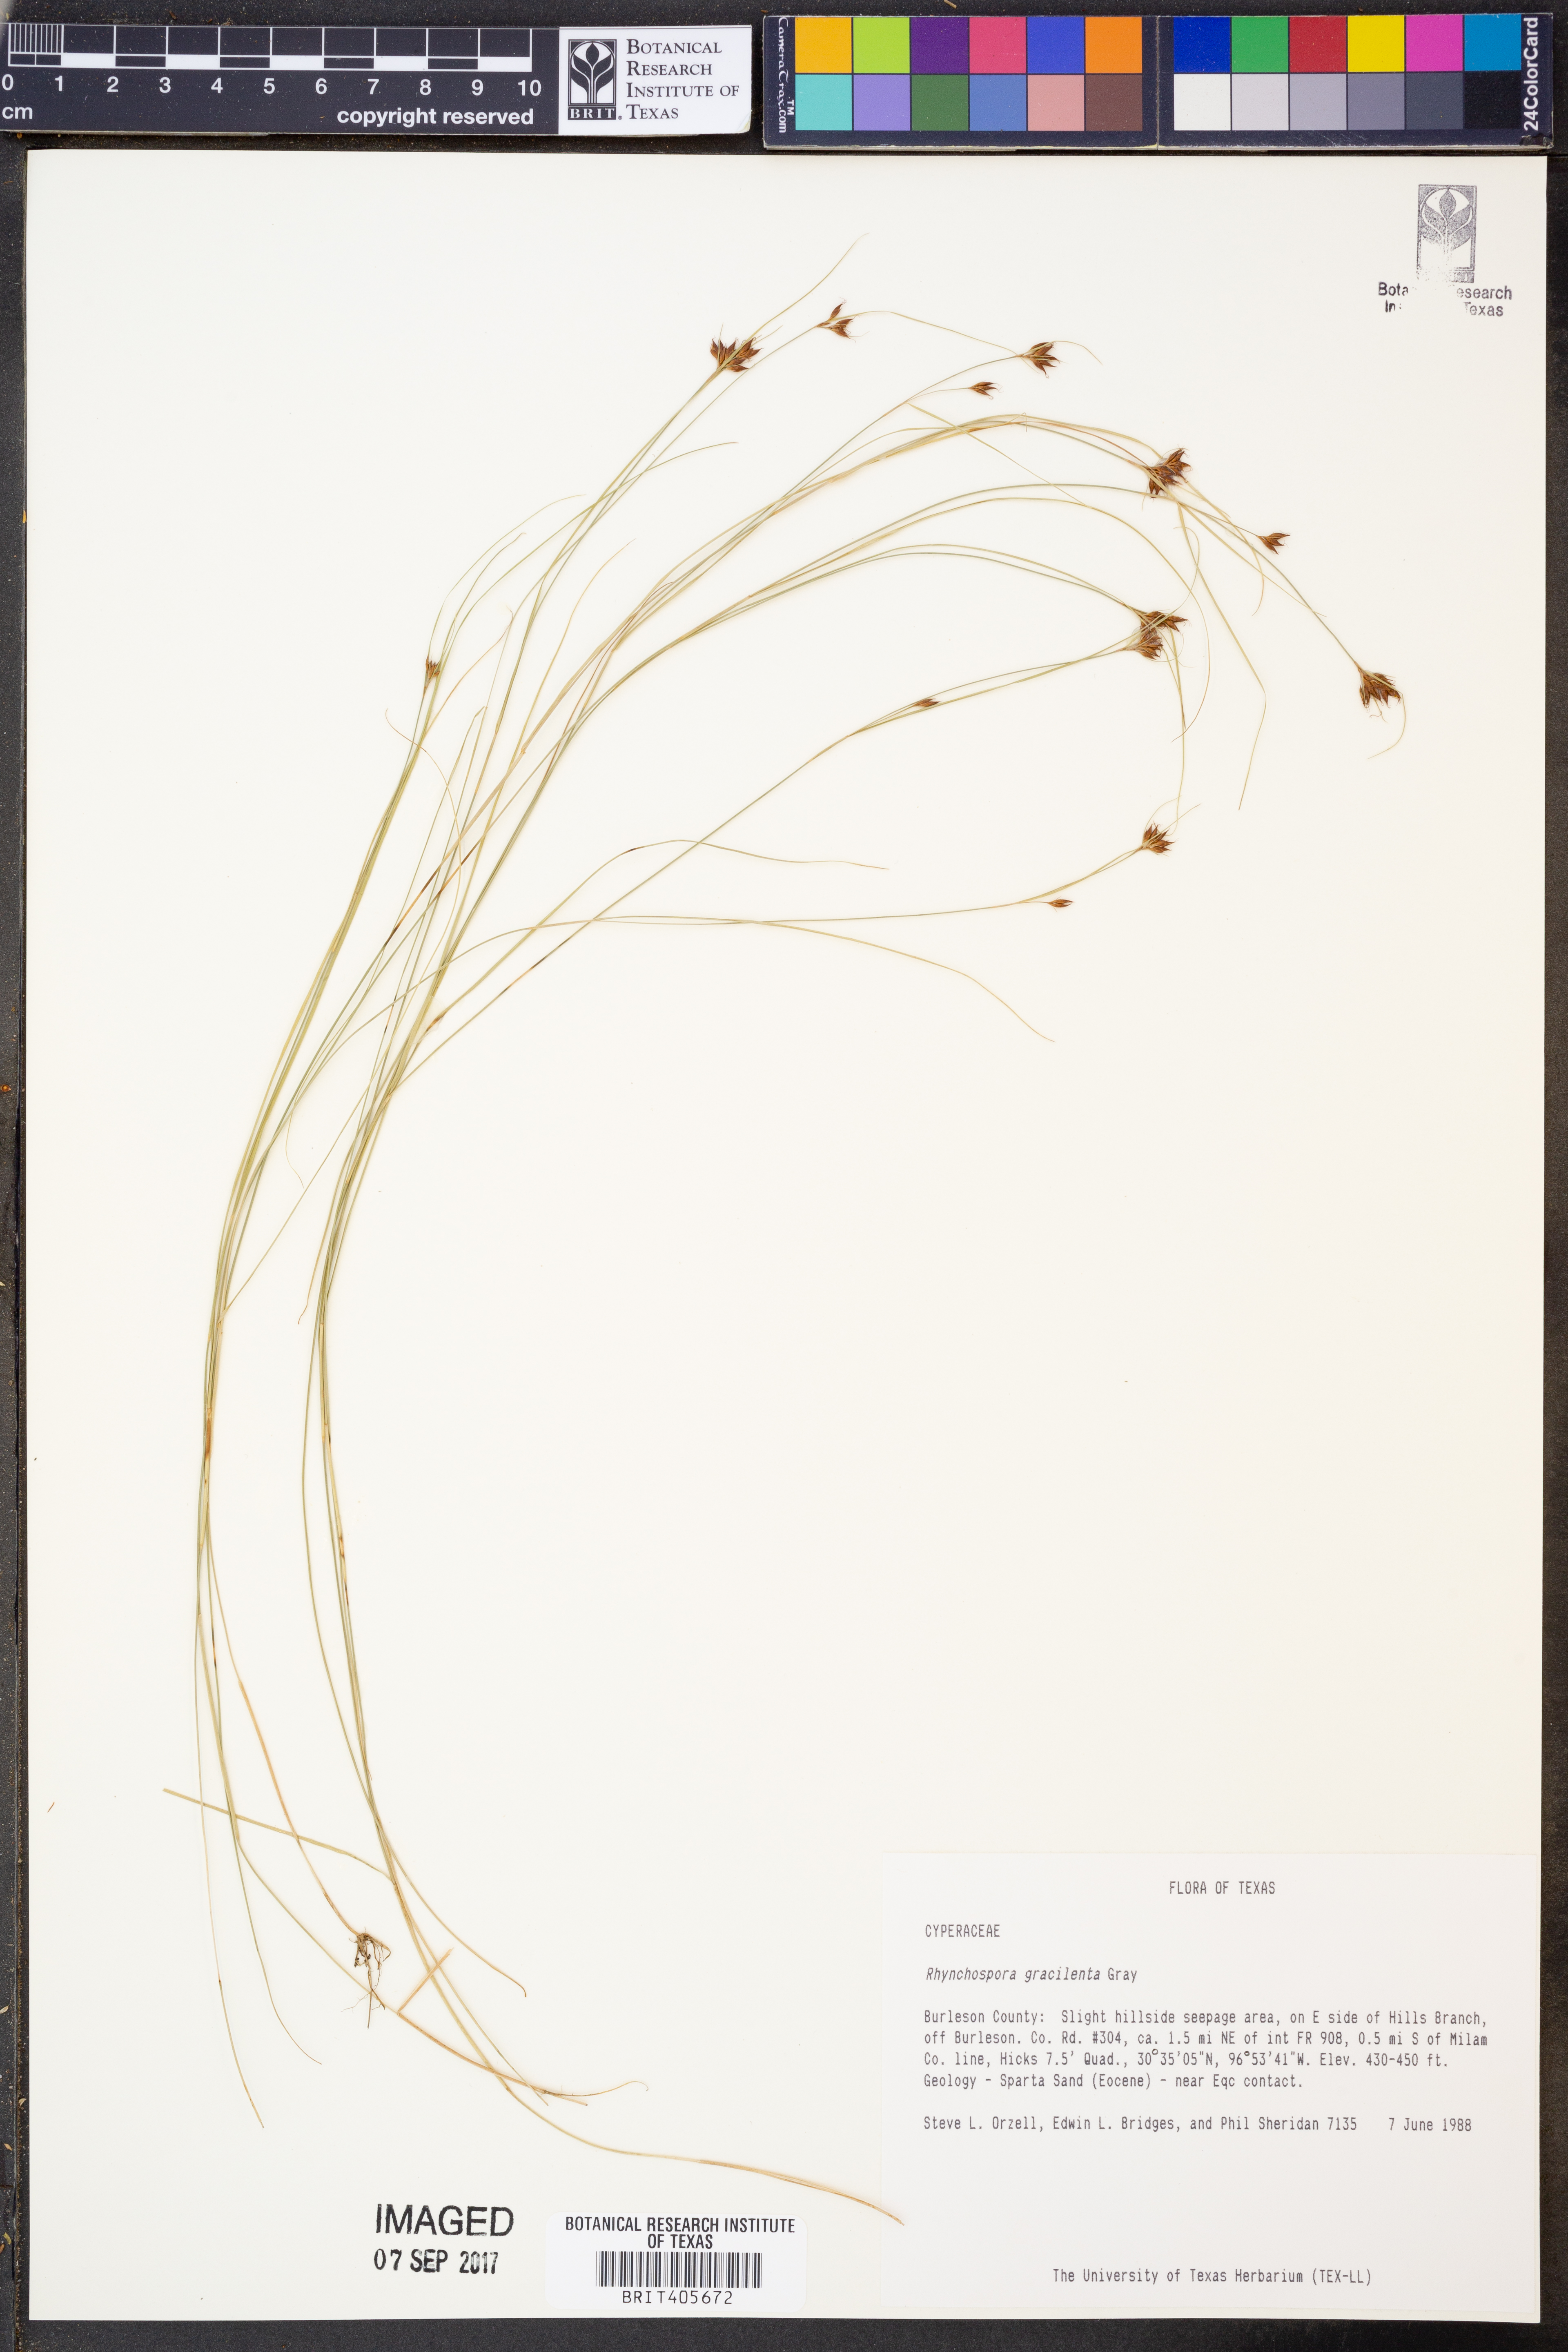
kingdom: Plantae
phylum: Tracheophyta
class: Liliopsida
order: Poales
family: Cyperaceae
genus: Rhynchospora
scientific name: Rhynchospora gracilenta
